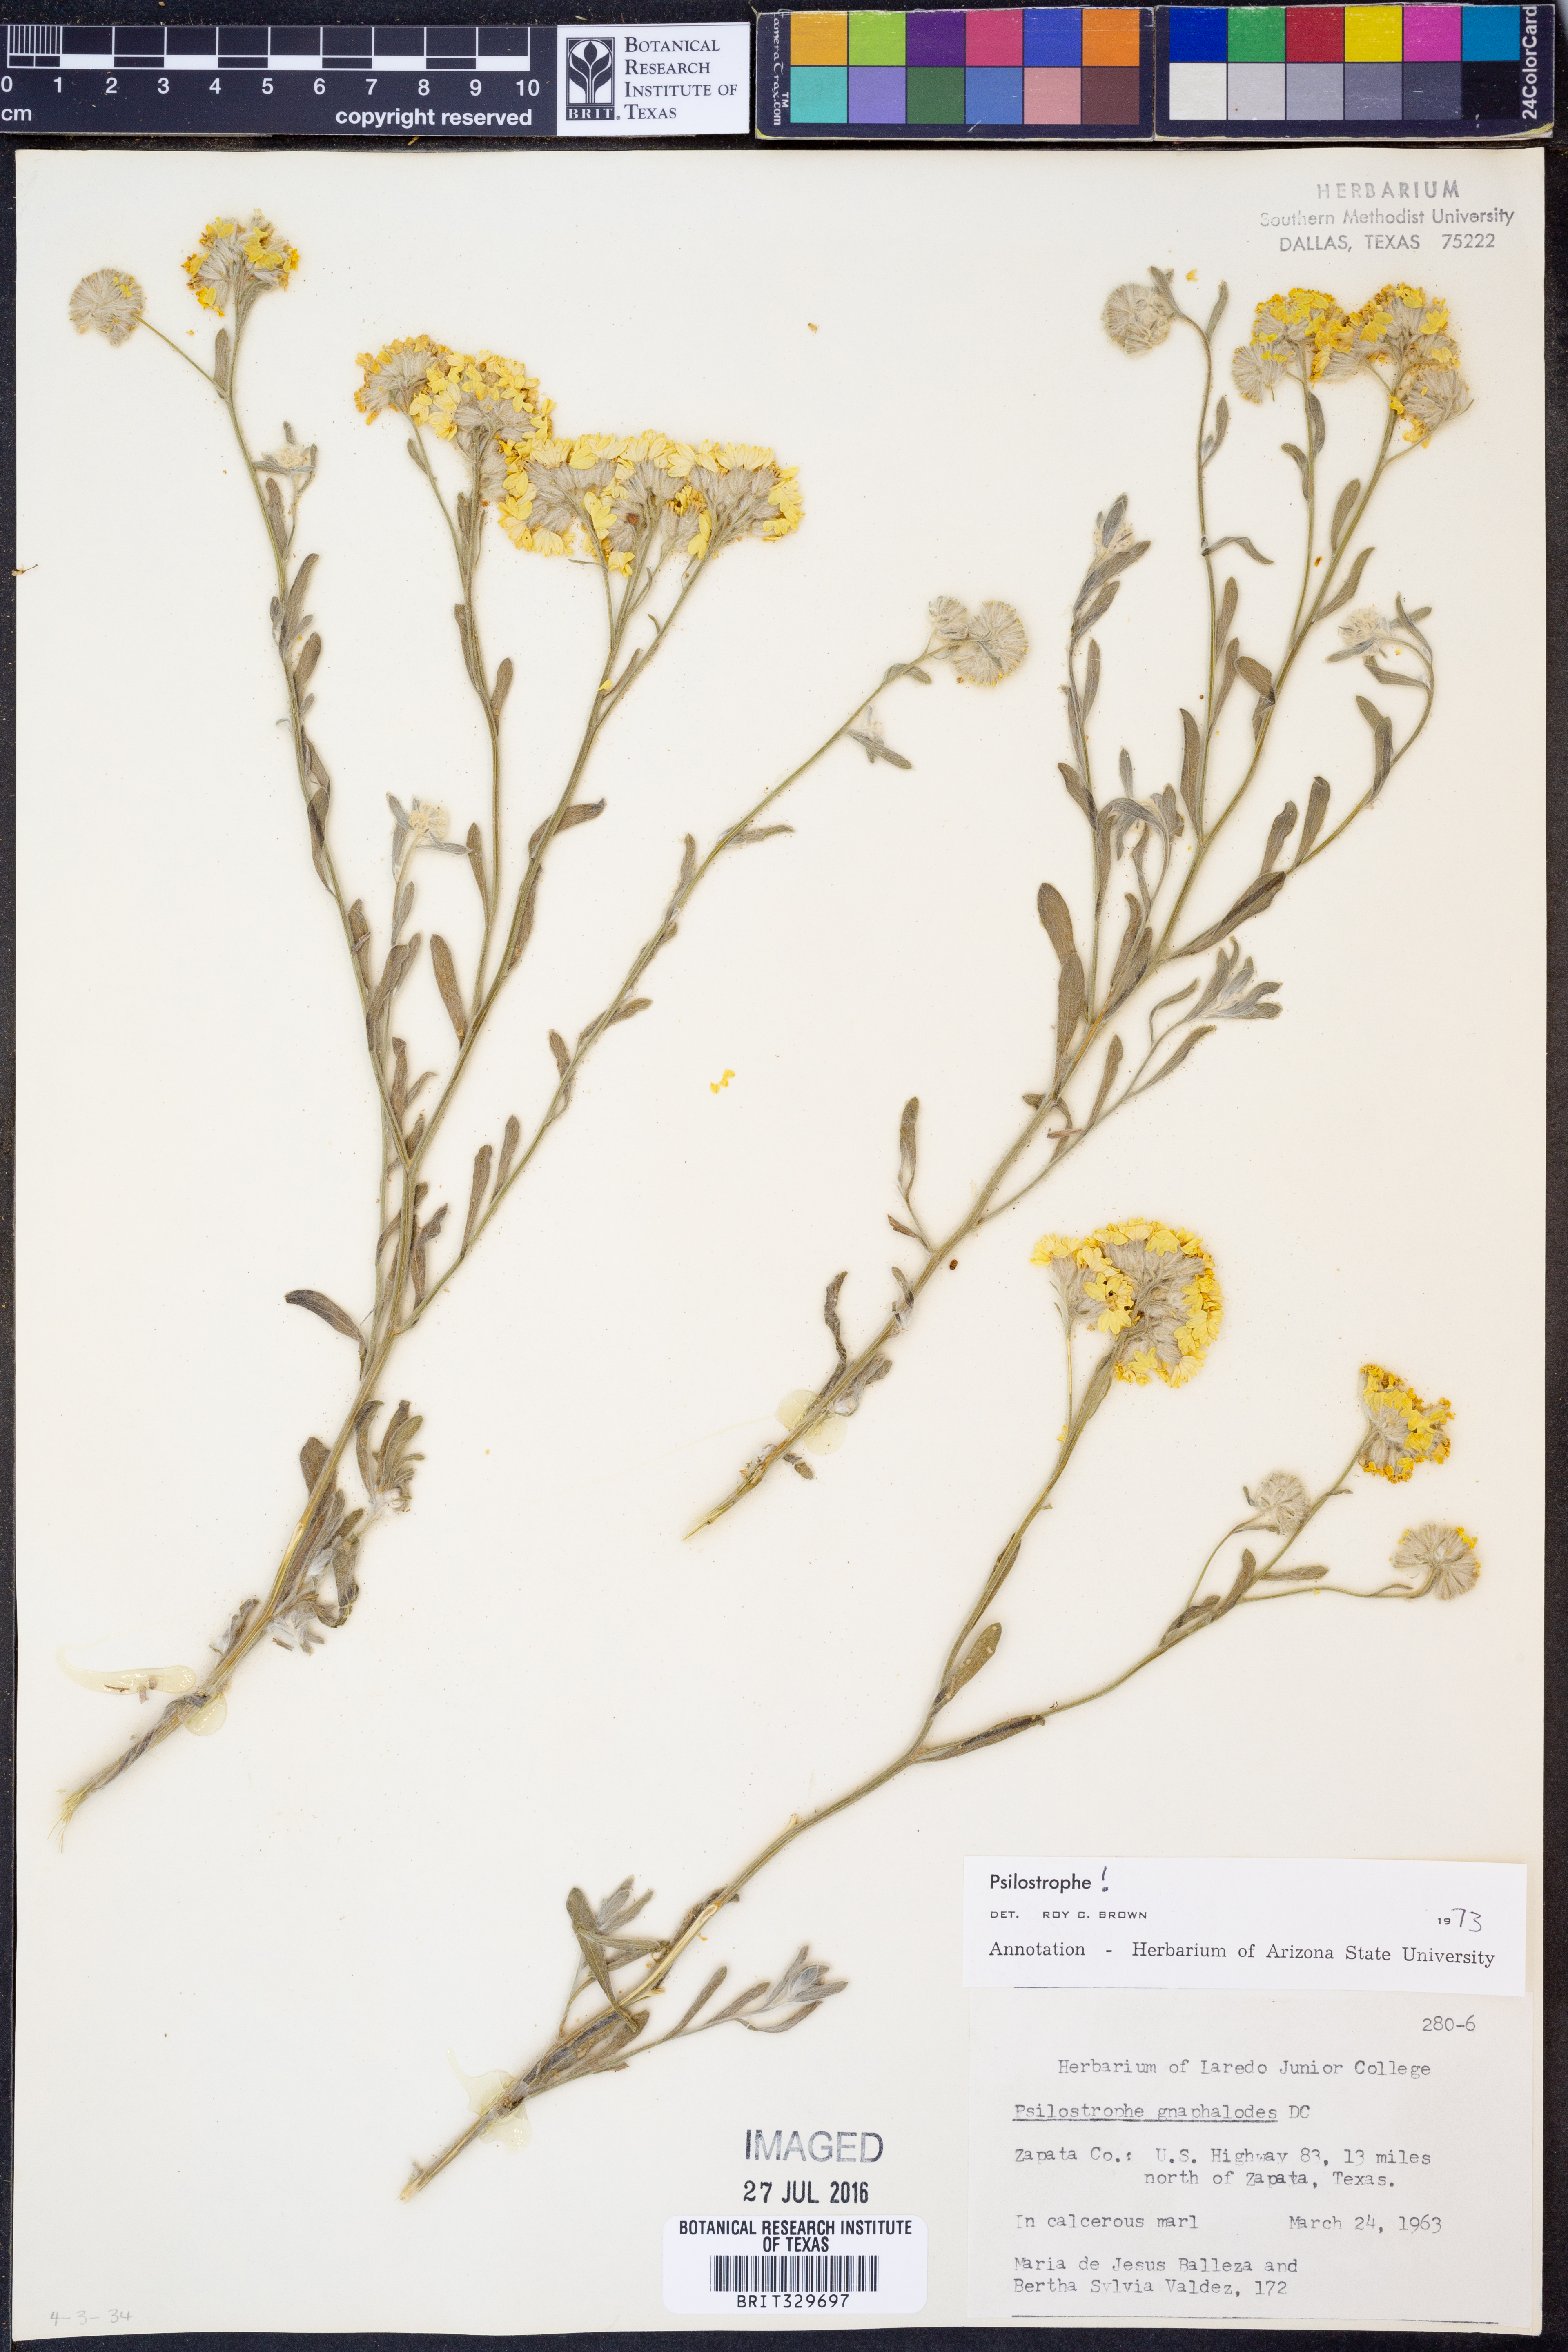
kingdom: Plantae
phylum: Tracheophyta
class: Magnoliopsida
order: Asterales
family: Asteraceae
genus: Psilostrophe
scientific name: Psilostrophe gnaphalioides
